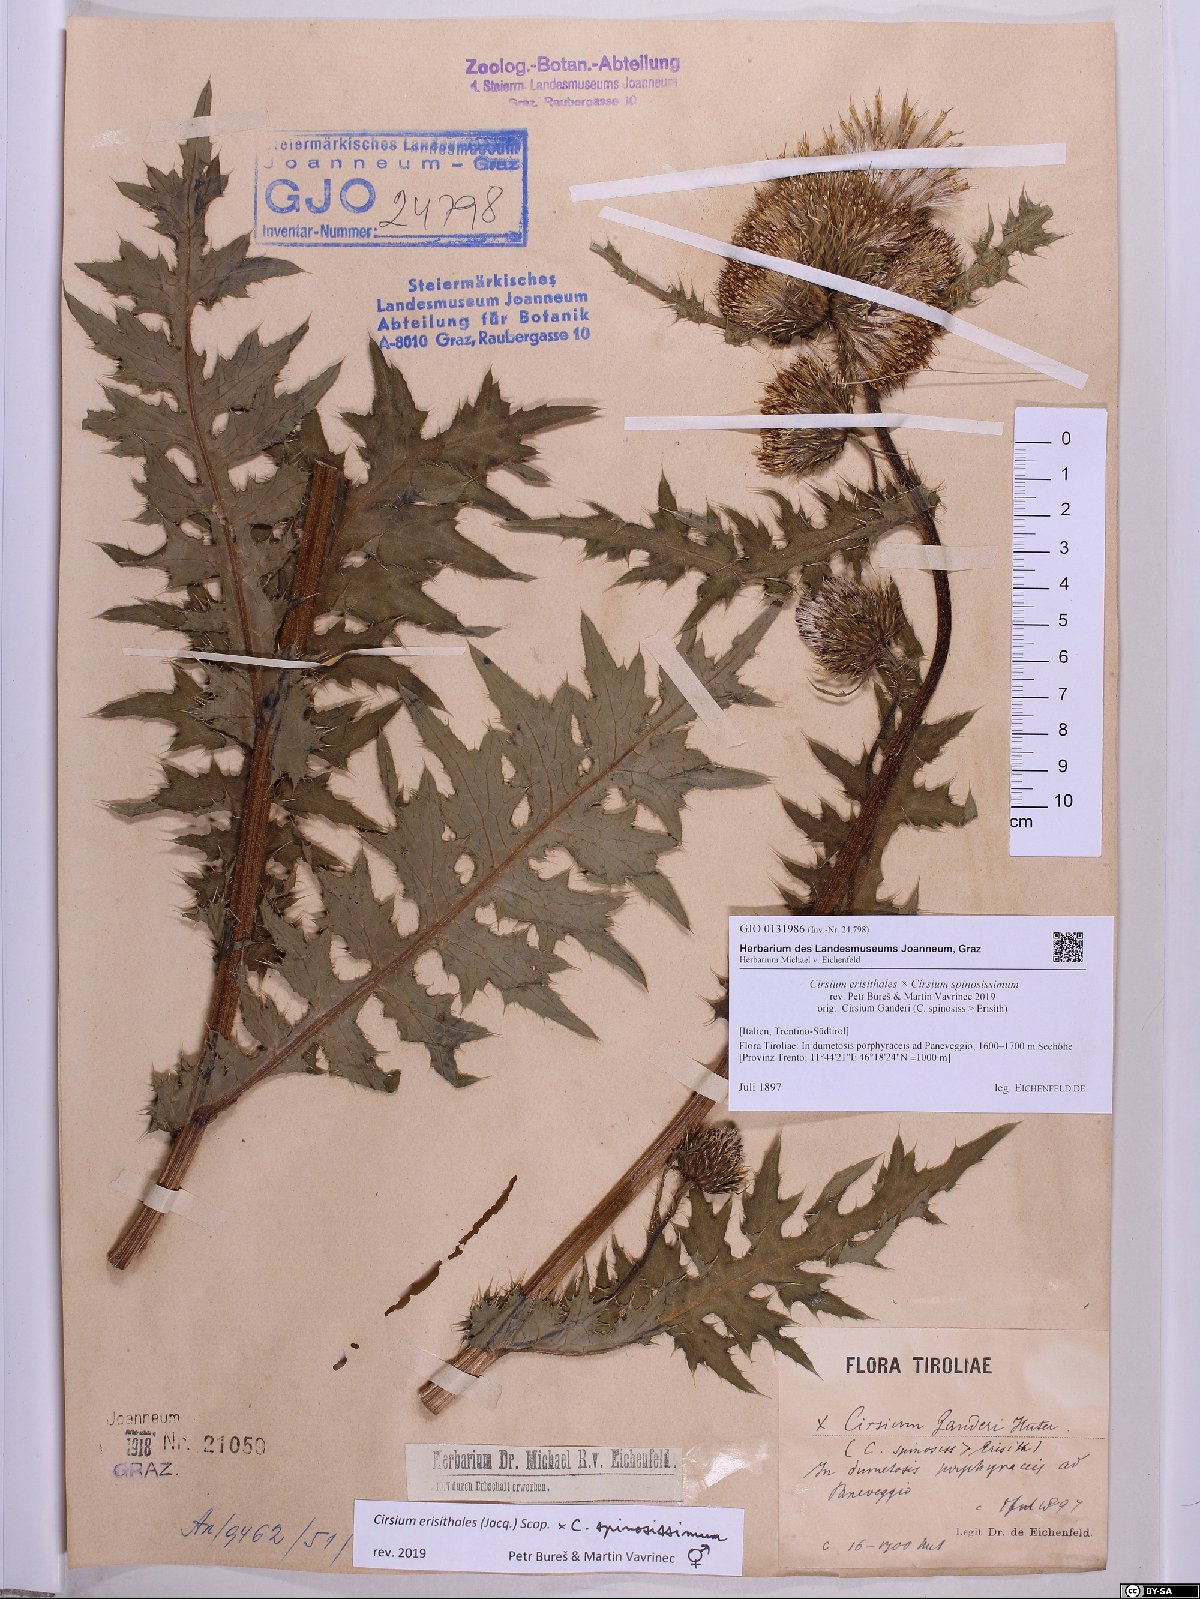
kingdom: Plantae
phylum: Tracheophyta
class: Magnoliopsida
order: Asterales
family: Asteraceae
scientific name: Asteraceae
